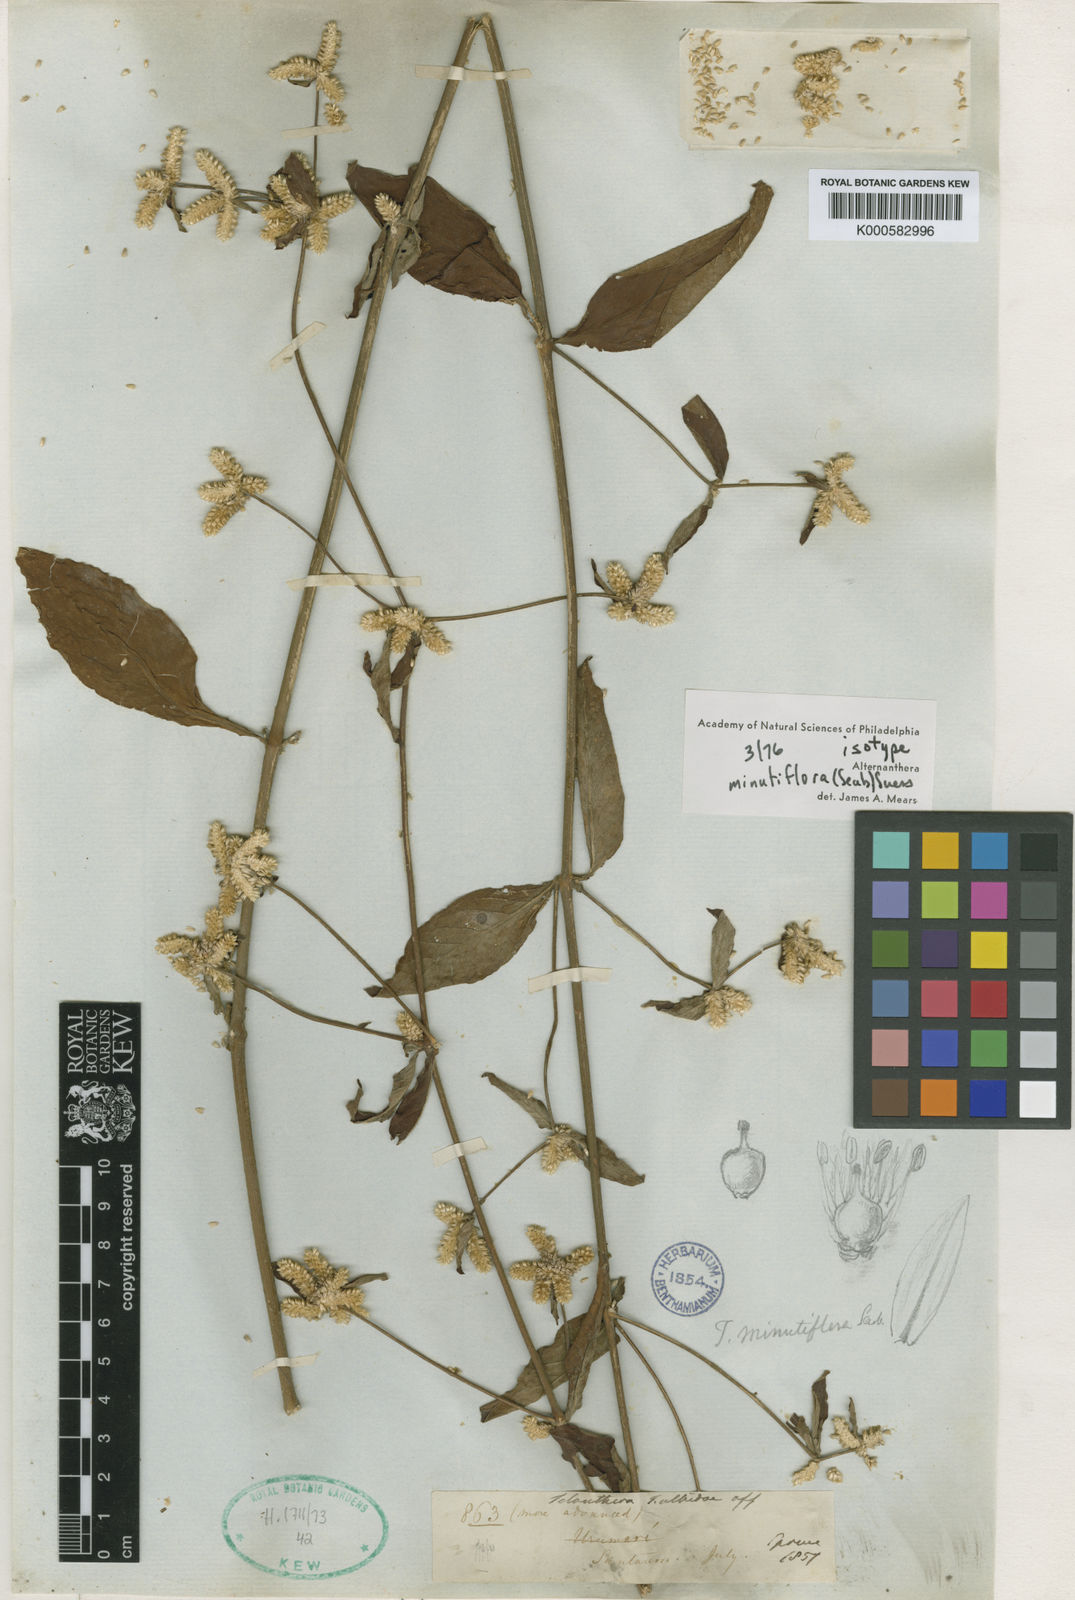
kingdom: Plantae
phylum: Tracheophyta
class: Magnoliopsida
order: Caryophyllales
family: Amaranthaceae
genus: Alternanthera
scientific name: Alternanthera minutiflora
